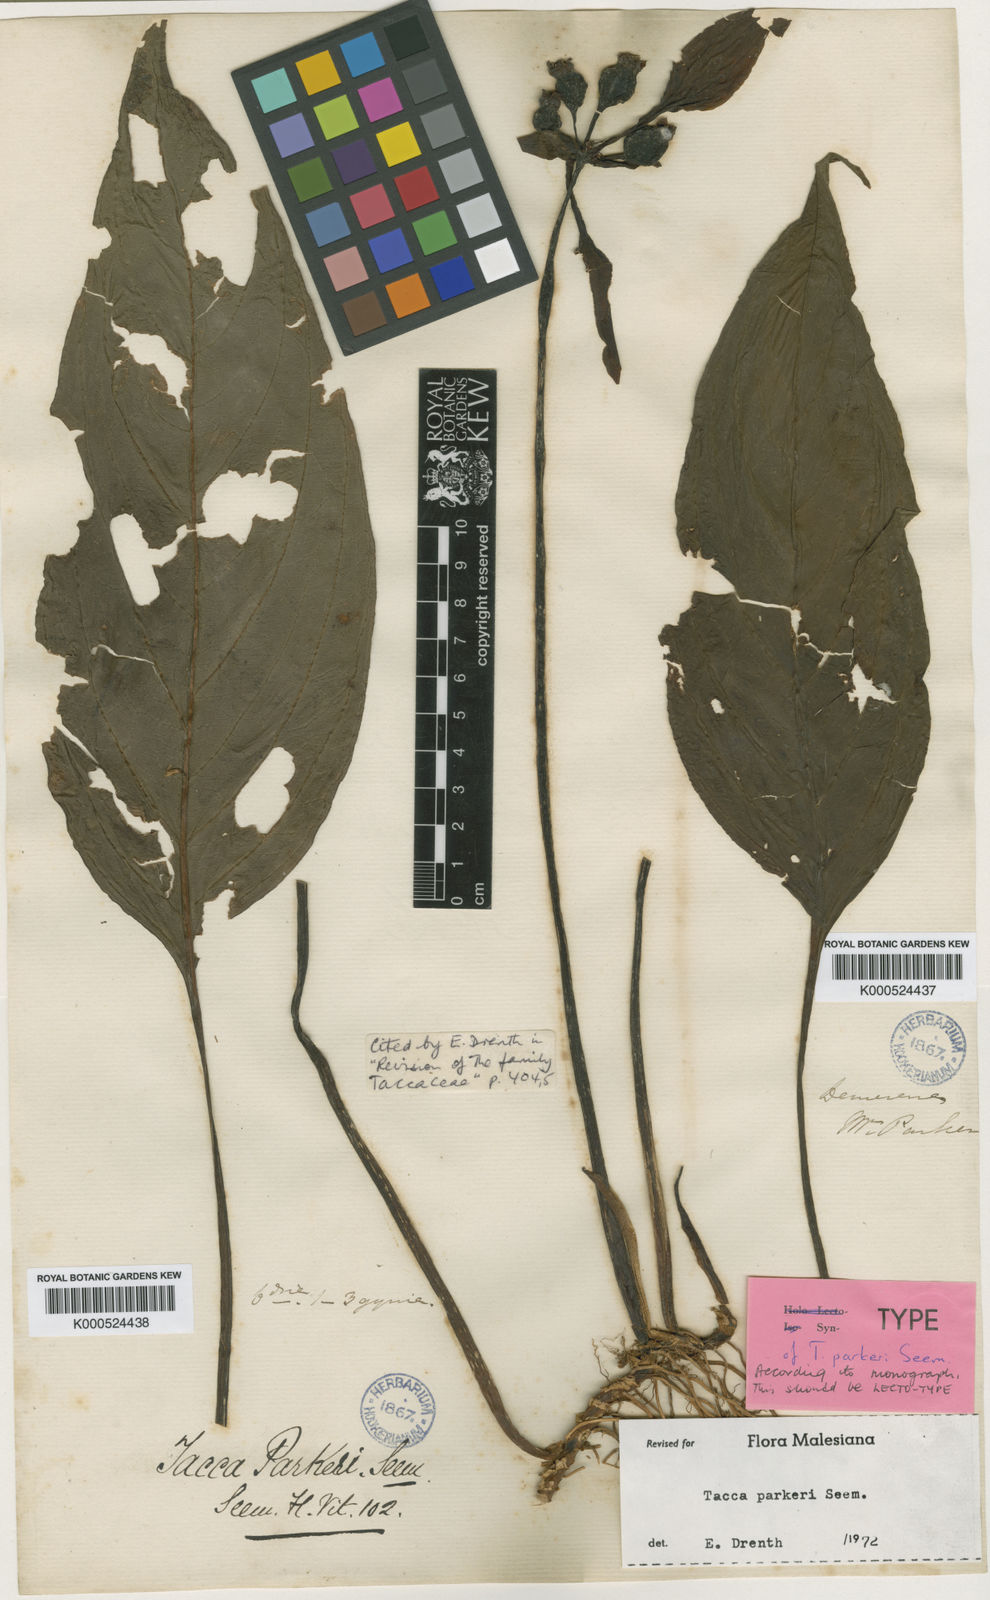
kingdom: Plantae
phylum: Tracheophyta
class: Liliopsida
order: Dioscoreales
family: Dioscoreaceae
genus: Tacca
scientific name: Tacca parkeri
